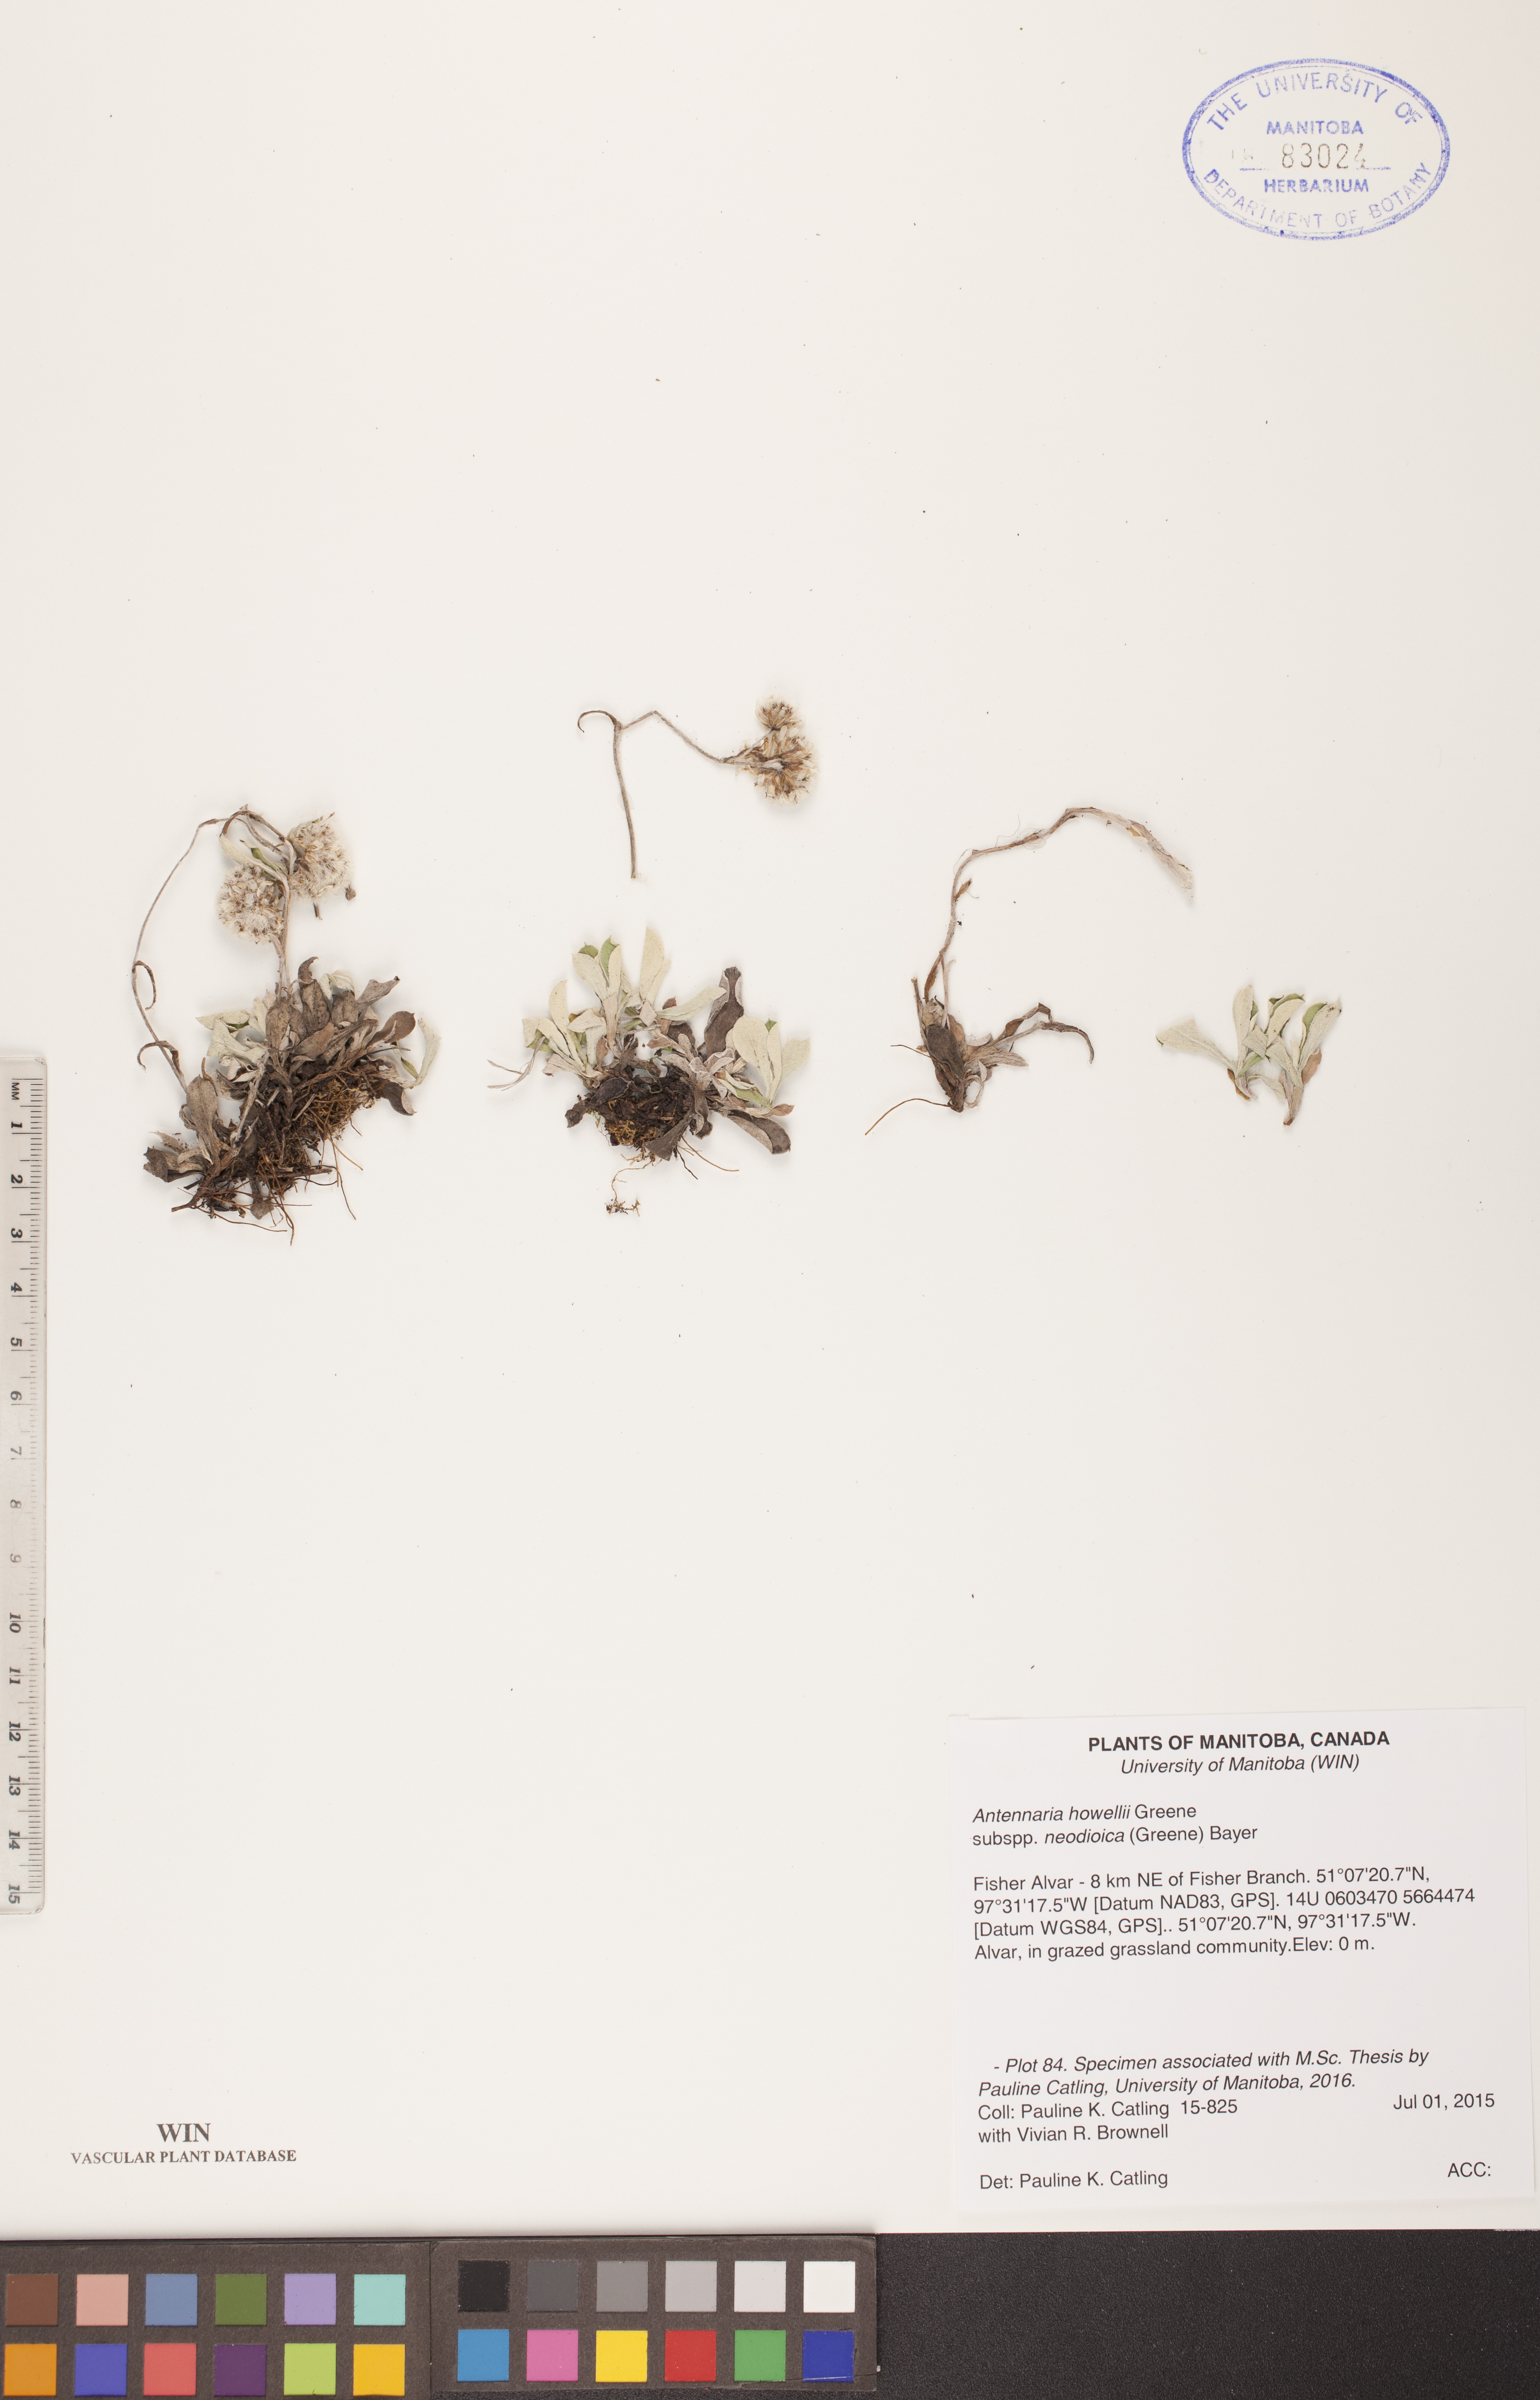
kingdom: Plantae
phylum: Tracheophyta
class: Magnoliopsida
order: Asterales
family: Asteraceae
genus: Antennaria
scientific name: Antennaria howellii
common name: Howell's pussytoes
